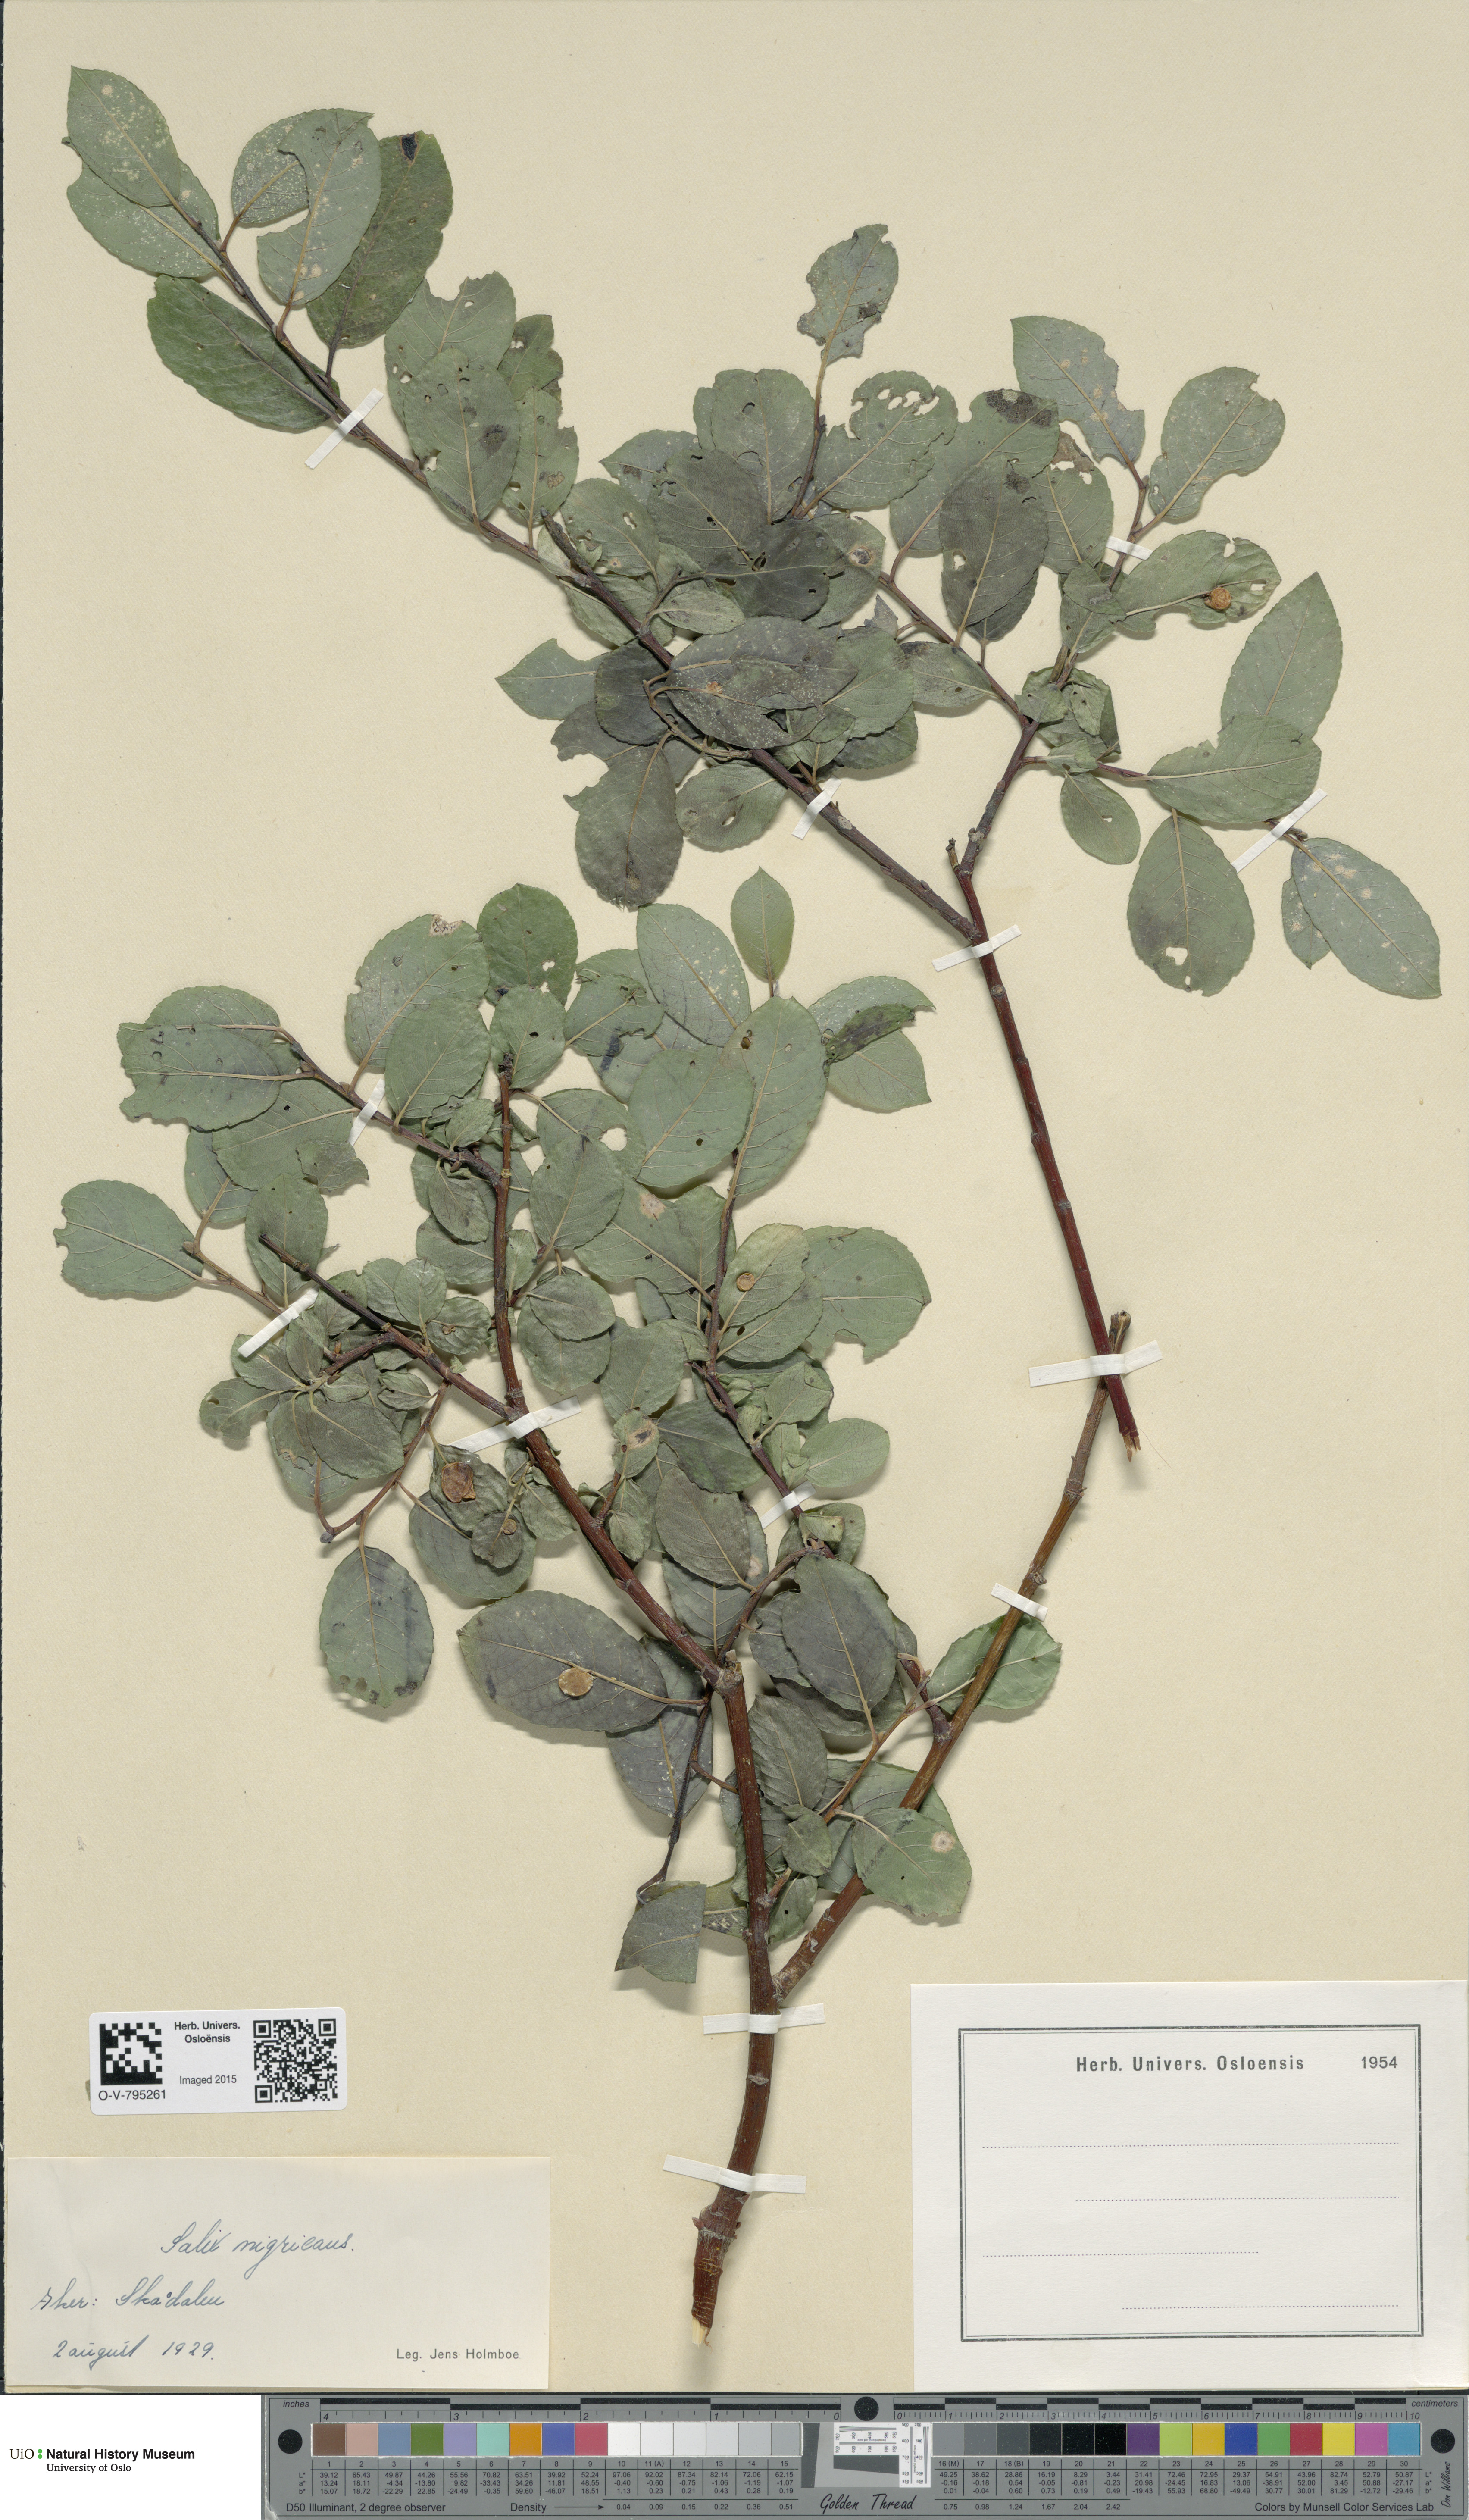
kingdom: Plantae
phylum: Tracheophyta
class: Magnoliopsida
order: Malpighiales
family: Salicaceae
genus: Salix
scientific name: Salix myrsinifolia
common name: Dark-leaved willow
